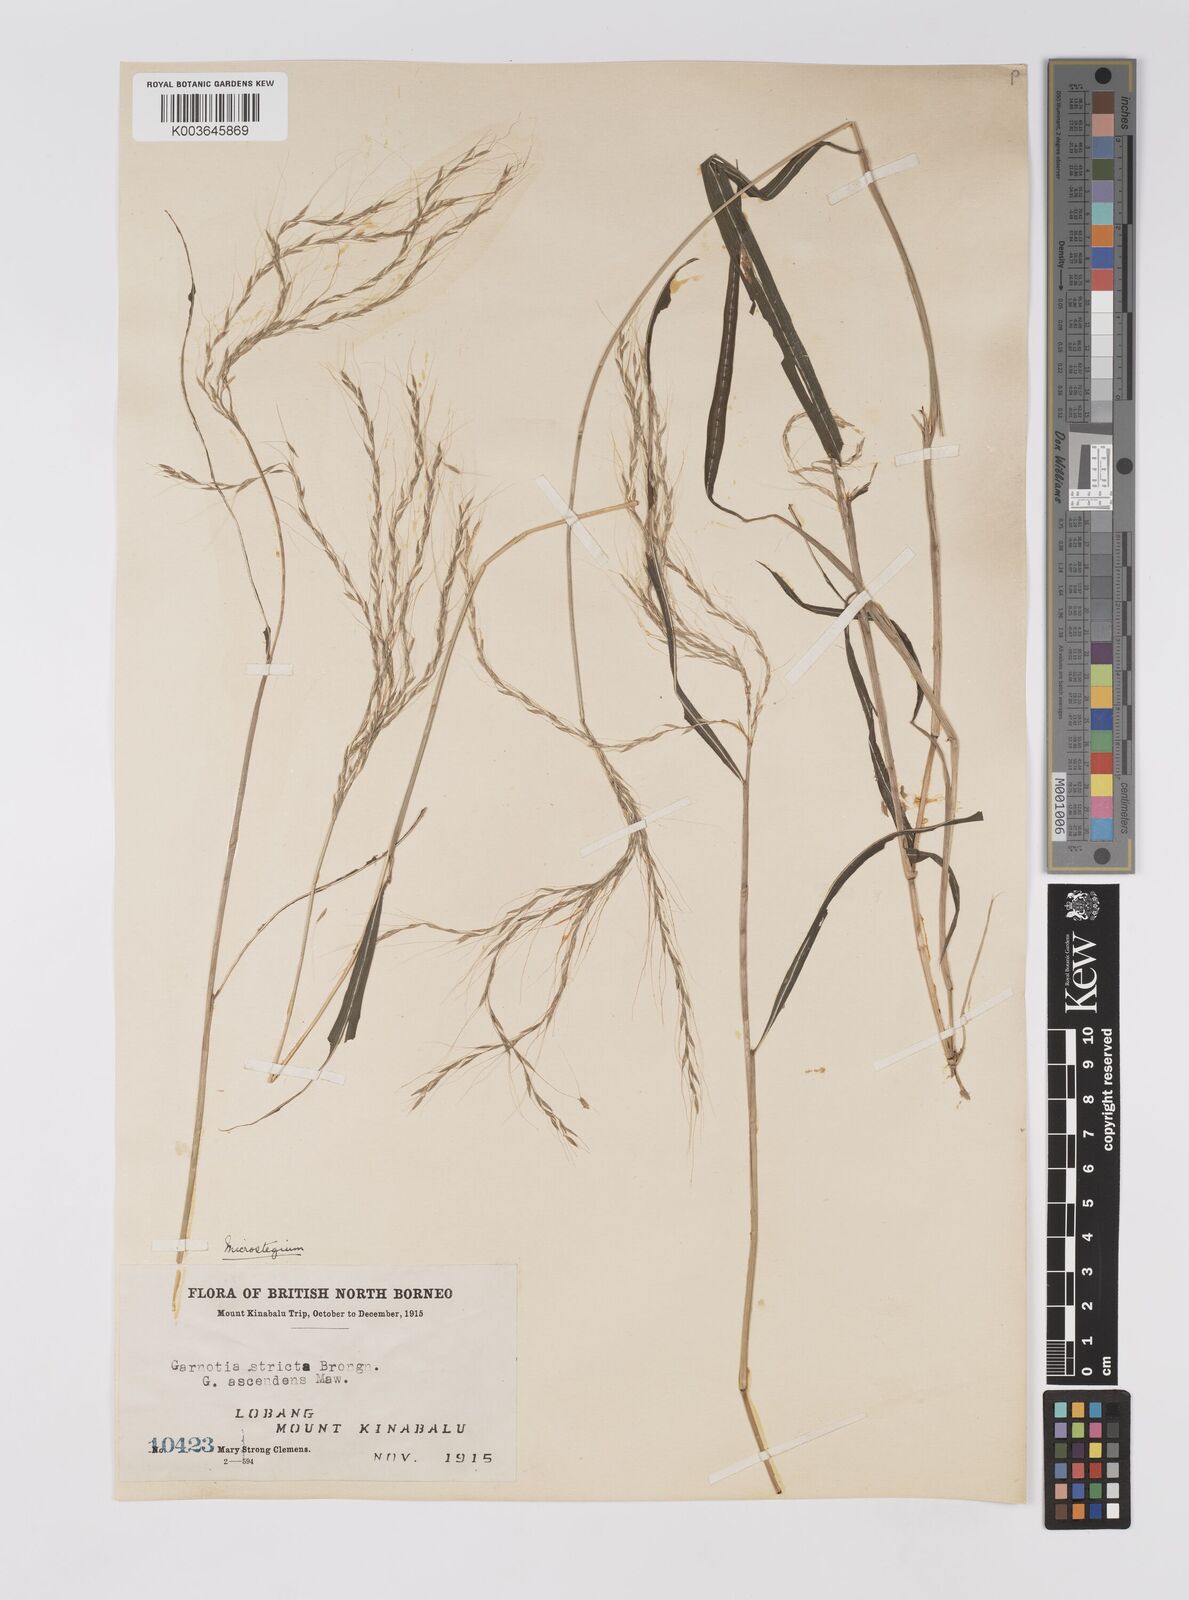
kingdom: Plantae
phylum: Tracheophyta
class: Liliopsida
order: Poales
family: Poaceae
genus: Microstegium
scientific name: Microstegium geniculatum
